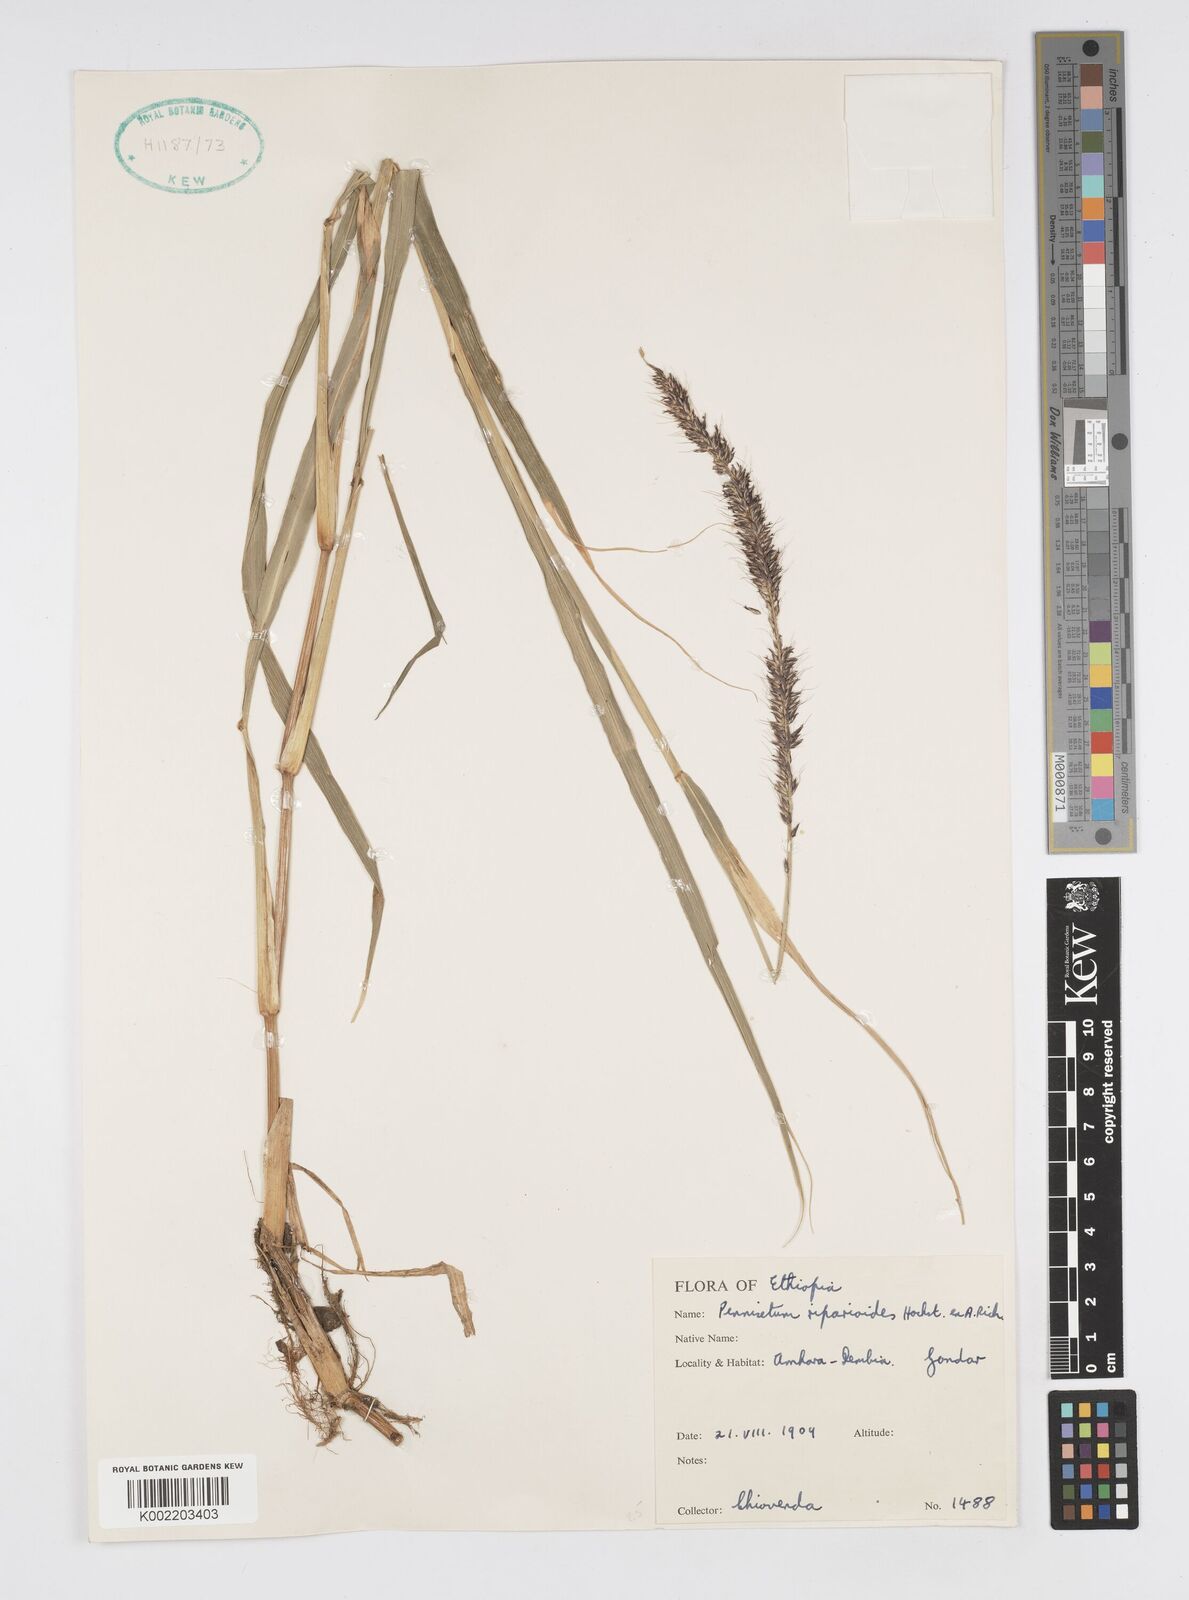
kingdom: Plantae
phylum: Tracheophyta
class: Liliopsida
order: Poales
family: Poaceae
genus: Cenchrus
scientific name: Cenchrus caudatus
